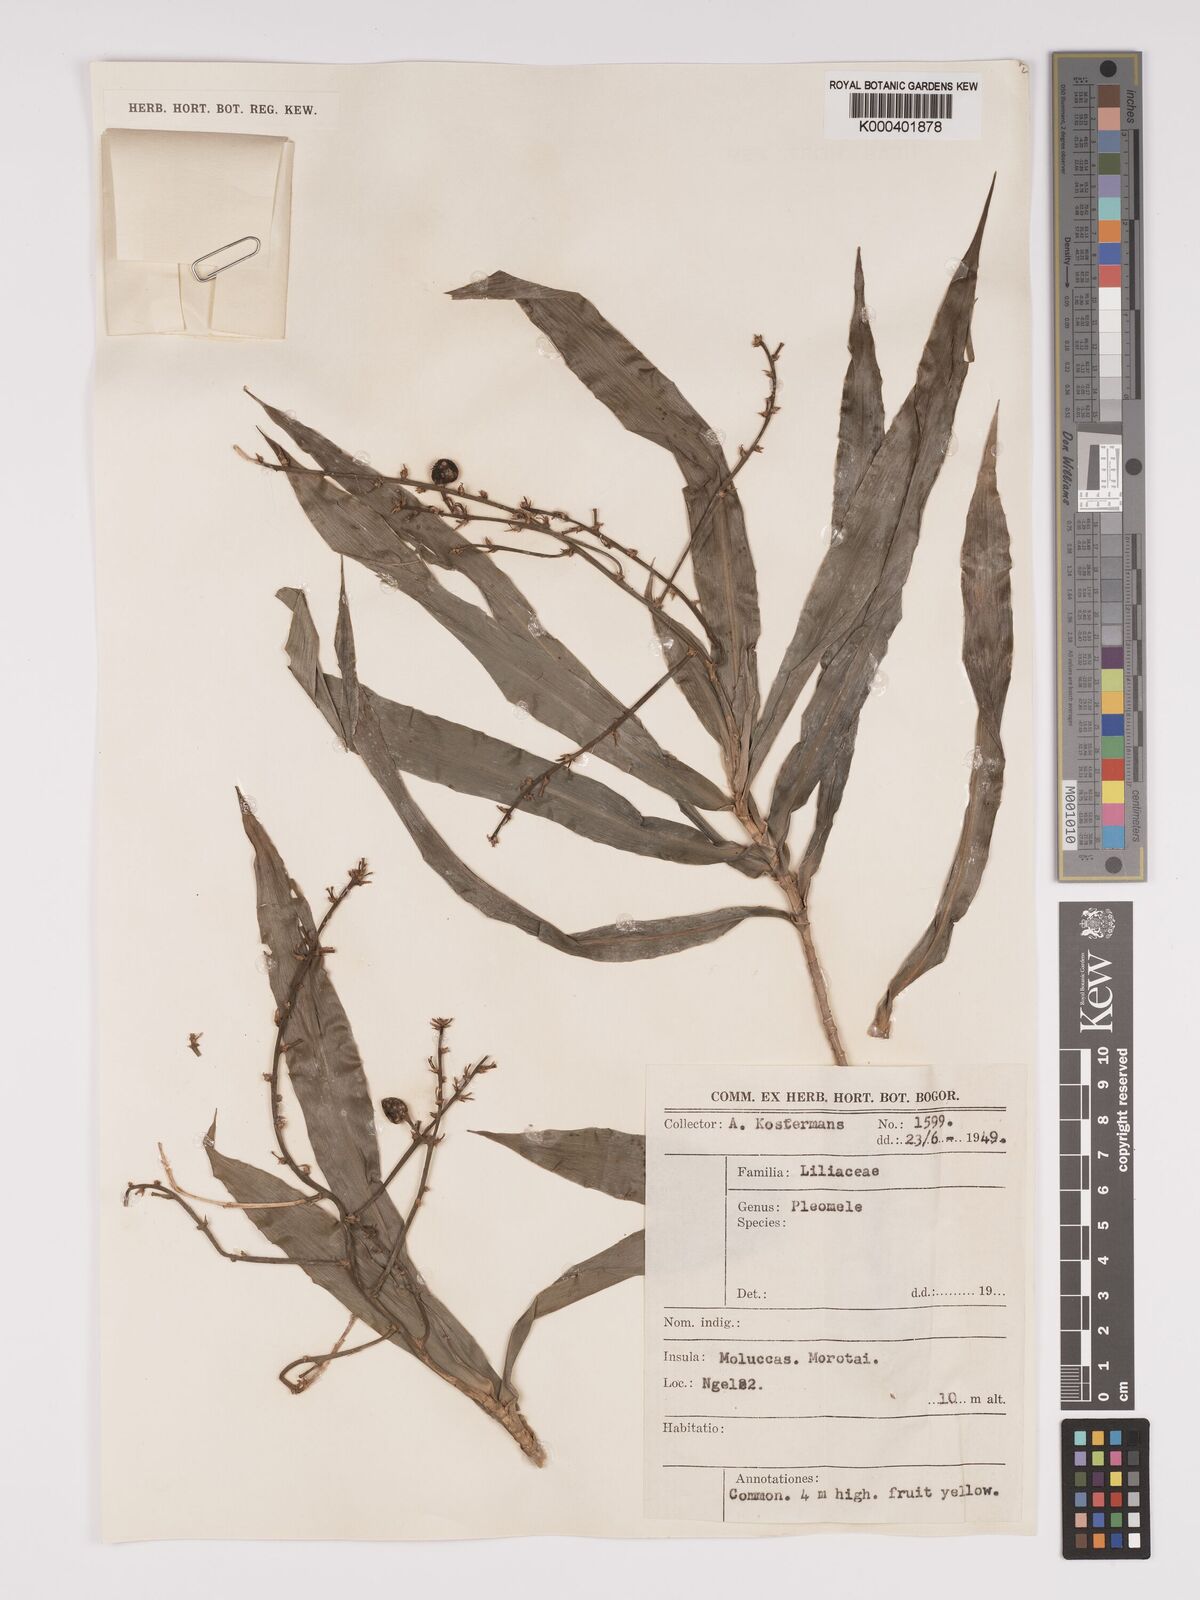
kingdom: Plantae
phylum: Tracheophyta
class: Liliopsida
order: Asparagales
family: Asparagaceae
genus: Dracaena
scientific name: Dracaena
